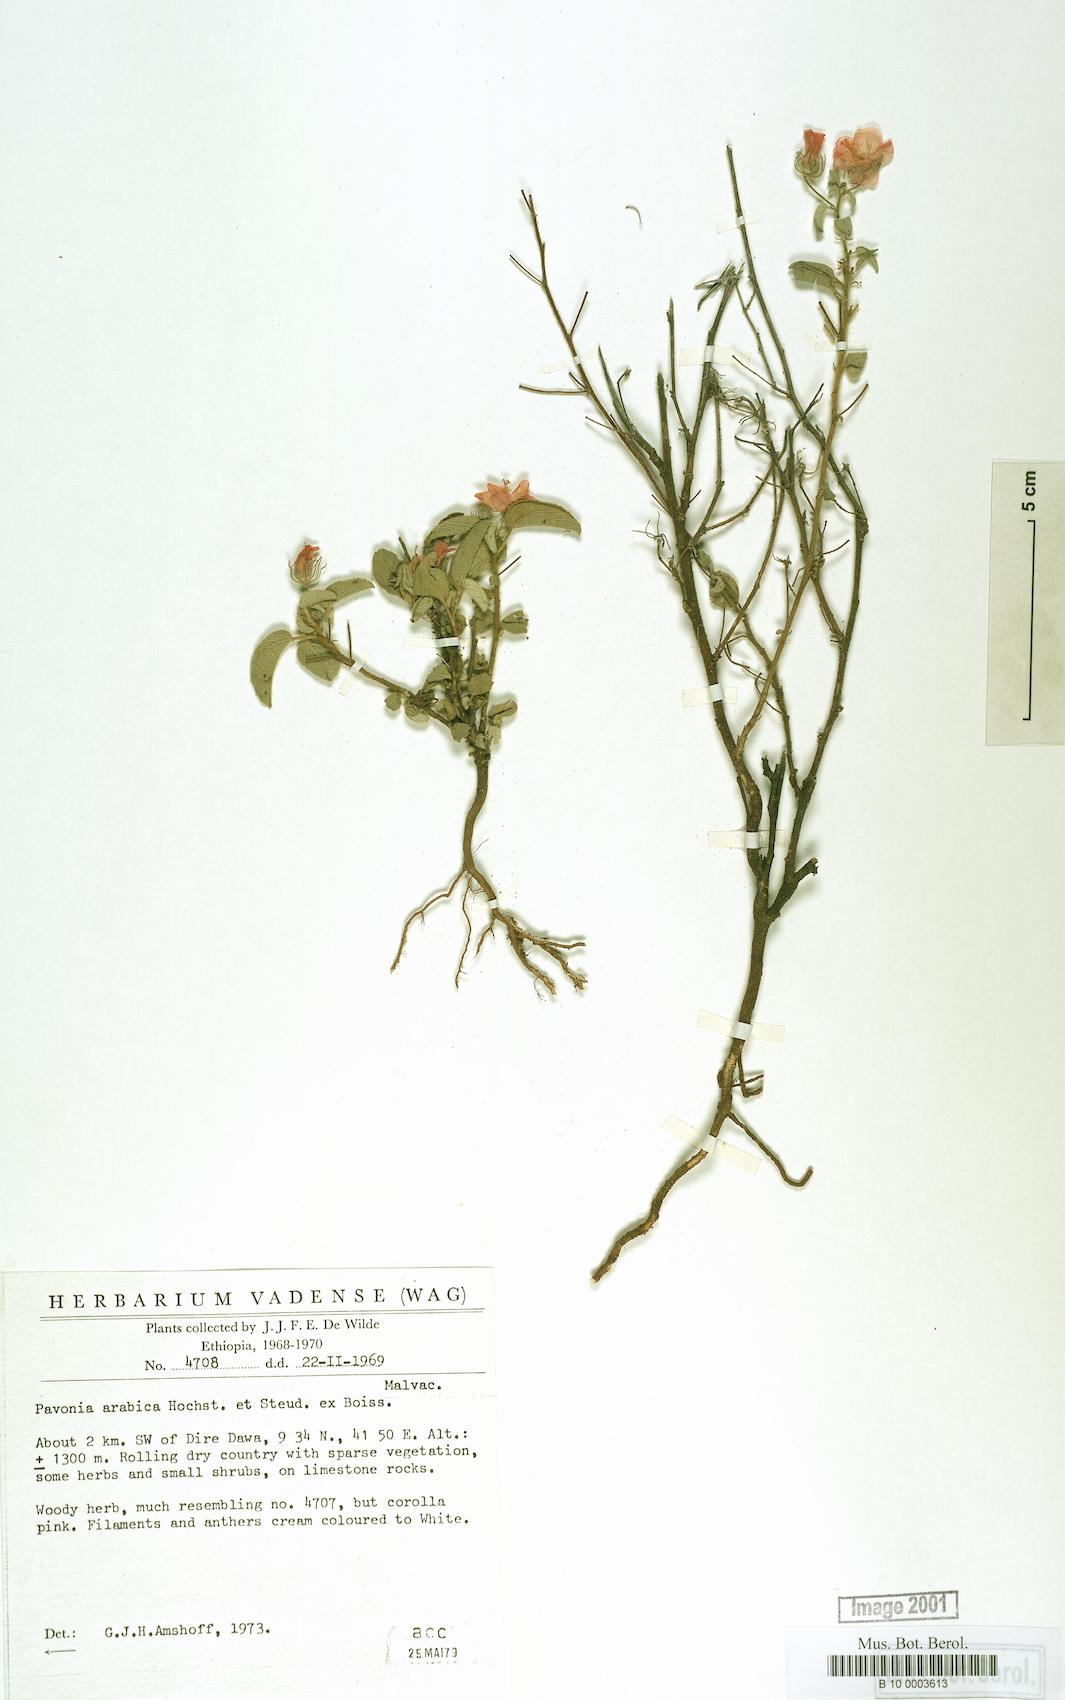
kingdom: Plantae
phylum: Tracheophyta
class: Magnoliopsida
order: Malvales
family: Malvaceae
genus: Pavonia
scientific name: Pavonia arabica
